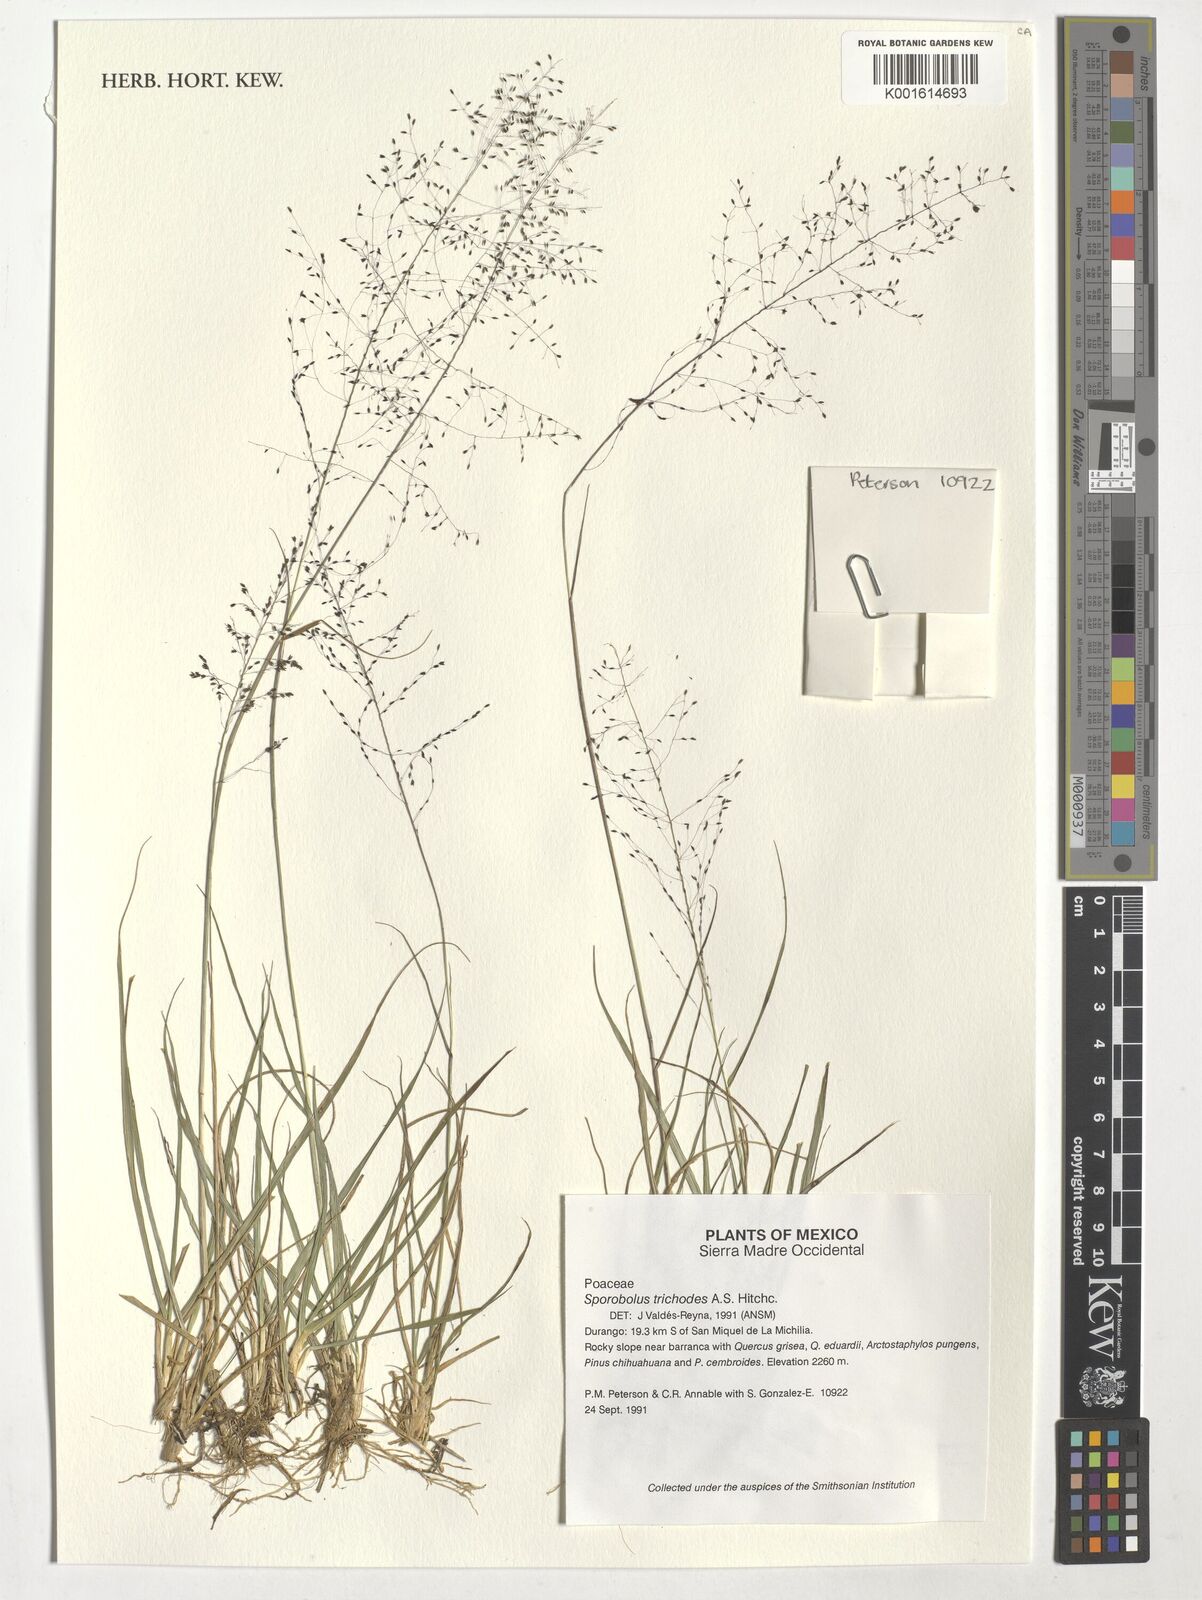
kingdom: Plantae
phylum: Tracheophyta
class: Liliopsida
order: Poales
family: Poaceae
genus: Sporobolus
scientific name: Sporobolus trichodes
